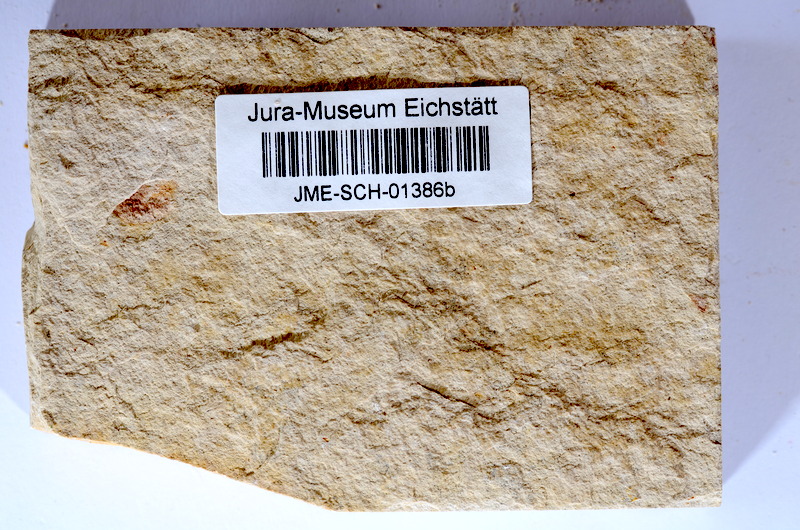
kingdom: Animalia
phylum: Chordata
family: Ascalaboidae
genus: Tharsis
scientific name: Tharsis dubius
